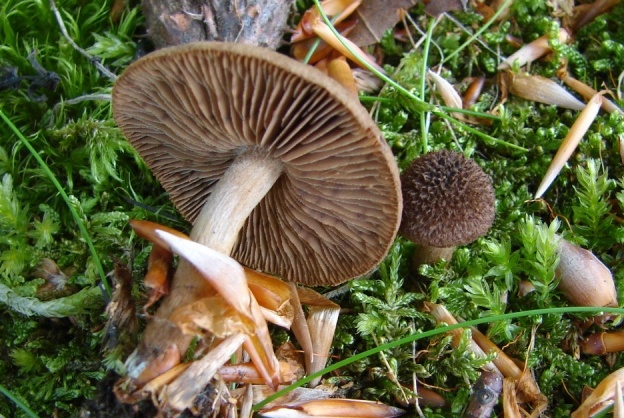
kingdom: Fungi
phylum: Basidiomycota
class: Agaricomycetes
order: Agaricales
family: Inocybaceae
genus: Inocybe
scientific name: Inocybe stellatospora
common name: spidsskællet trævlhat
